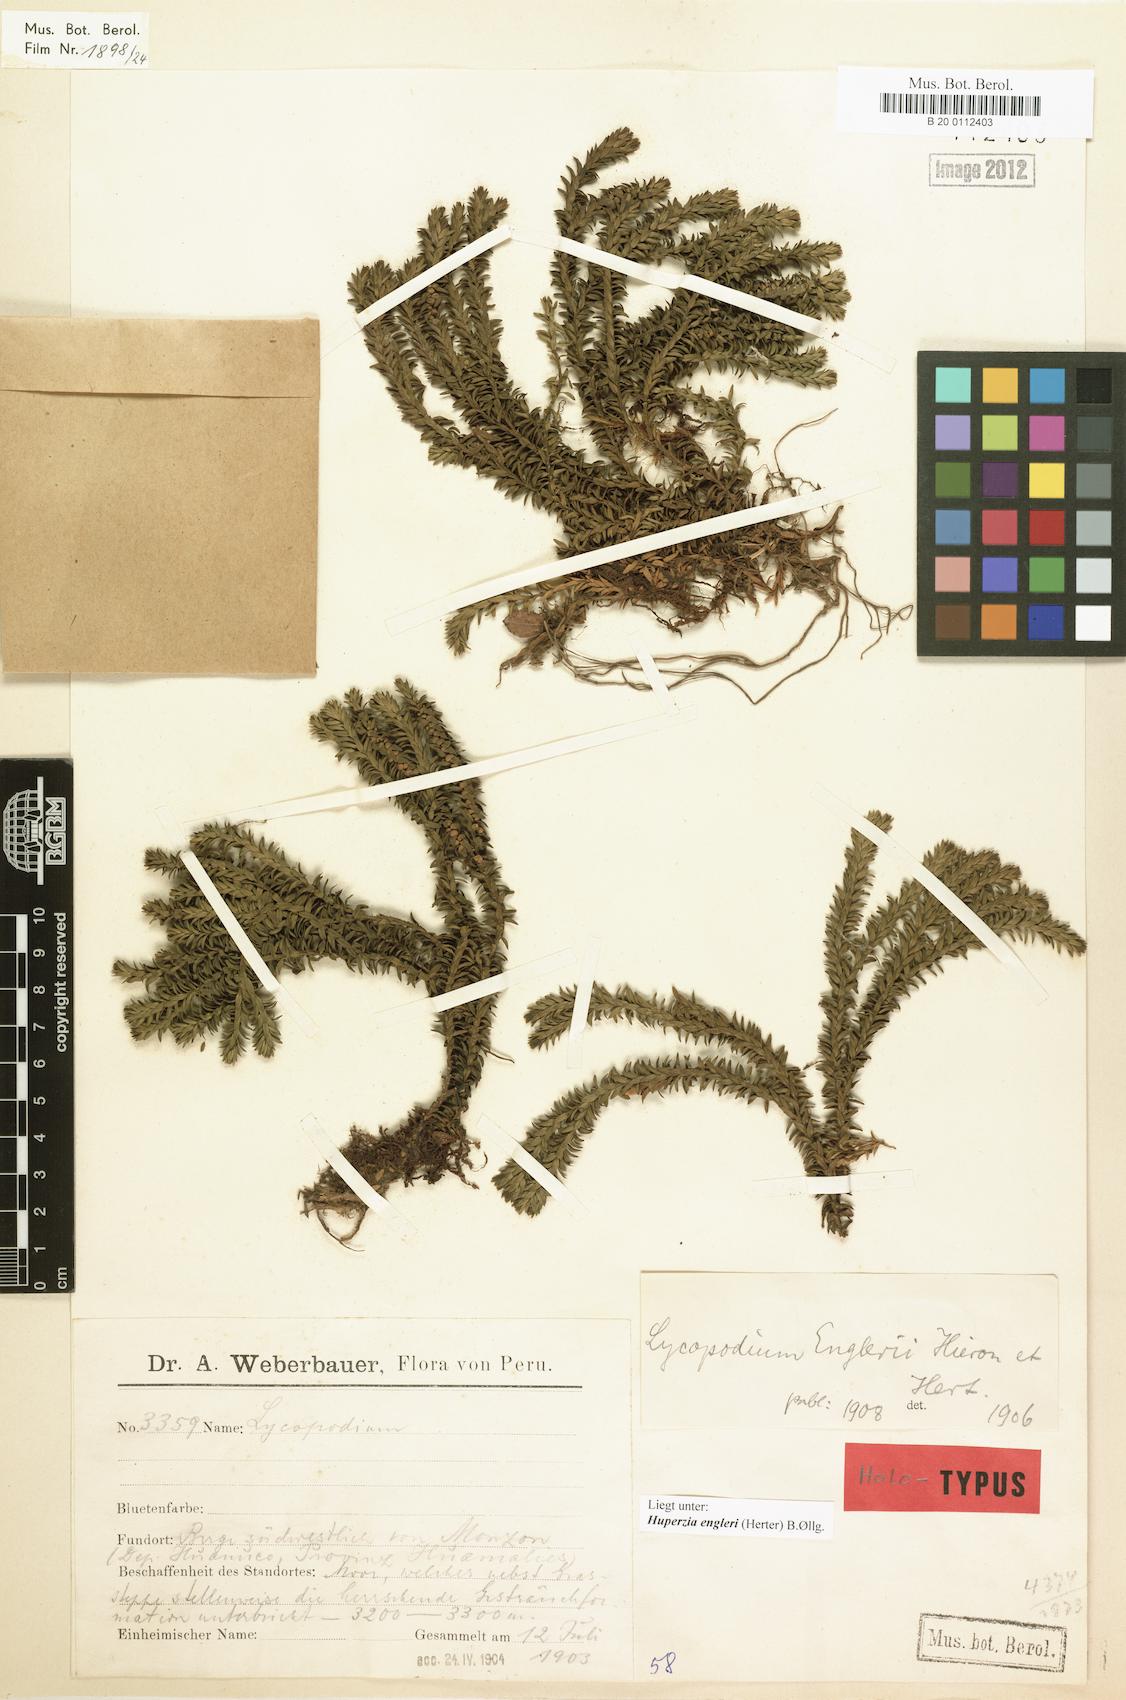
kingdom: Plantae
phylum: Tracheophyta
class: Lycopodiopsida
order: Lycopodiales
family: Lycopodiaceae
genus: Phlegmariurus
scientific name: Phlegmariurus engleri
